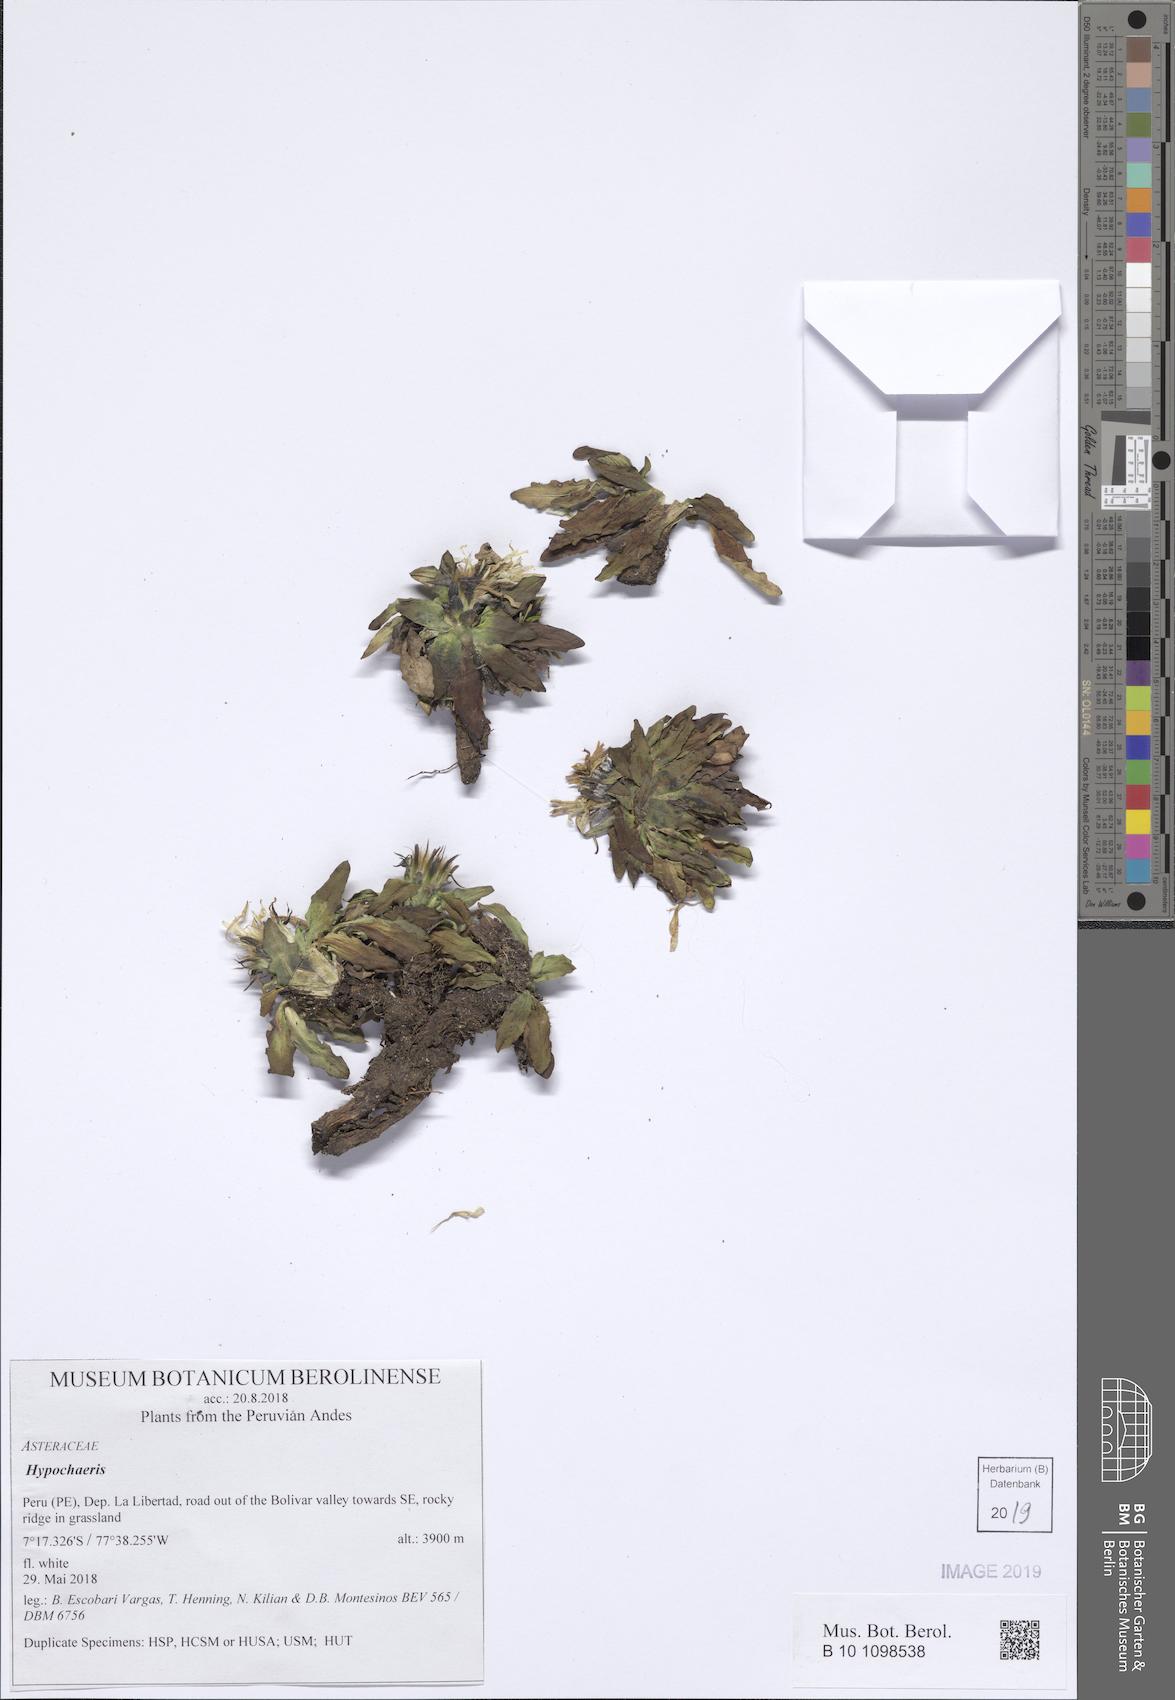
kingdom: Plantae
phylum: Tracheophyta
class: Magnoliopsida
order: Asterales
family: Asteraceae
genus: Hypochaeris
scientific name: Hypochaeris
